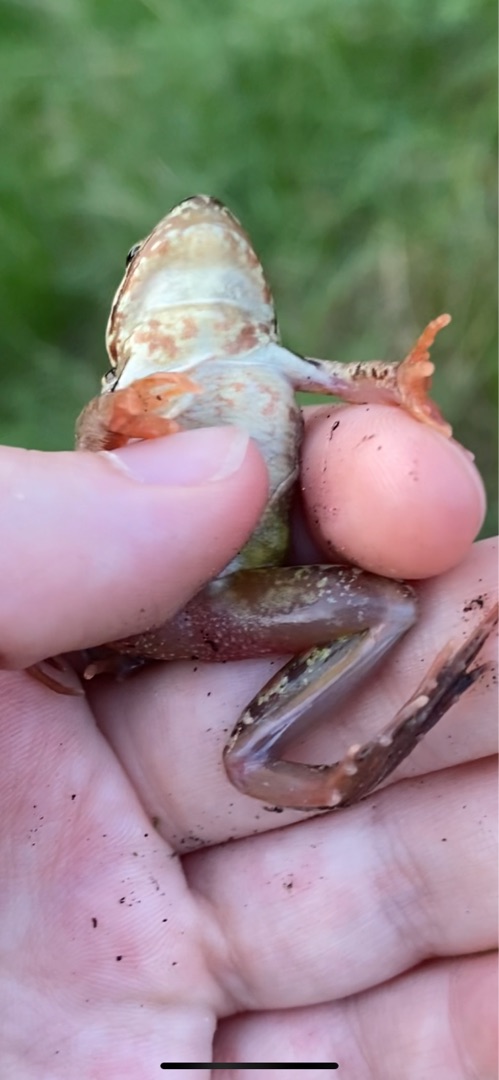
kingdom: Animalia
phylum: Chordata
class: Amphibia
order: Anura
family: Ranidae
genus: Rana
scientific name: Rana temporaria
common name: Butsnudet frø
